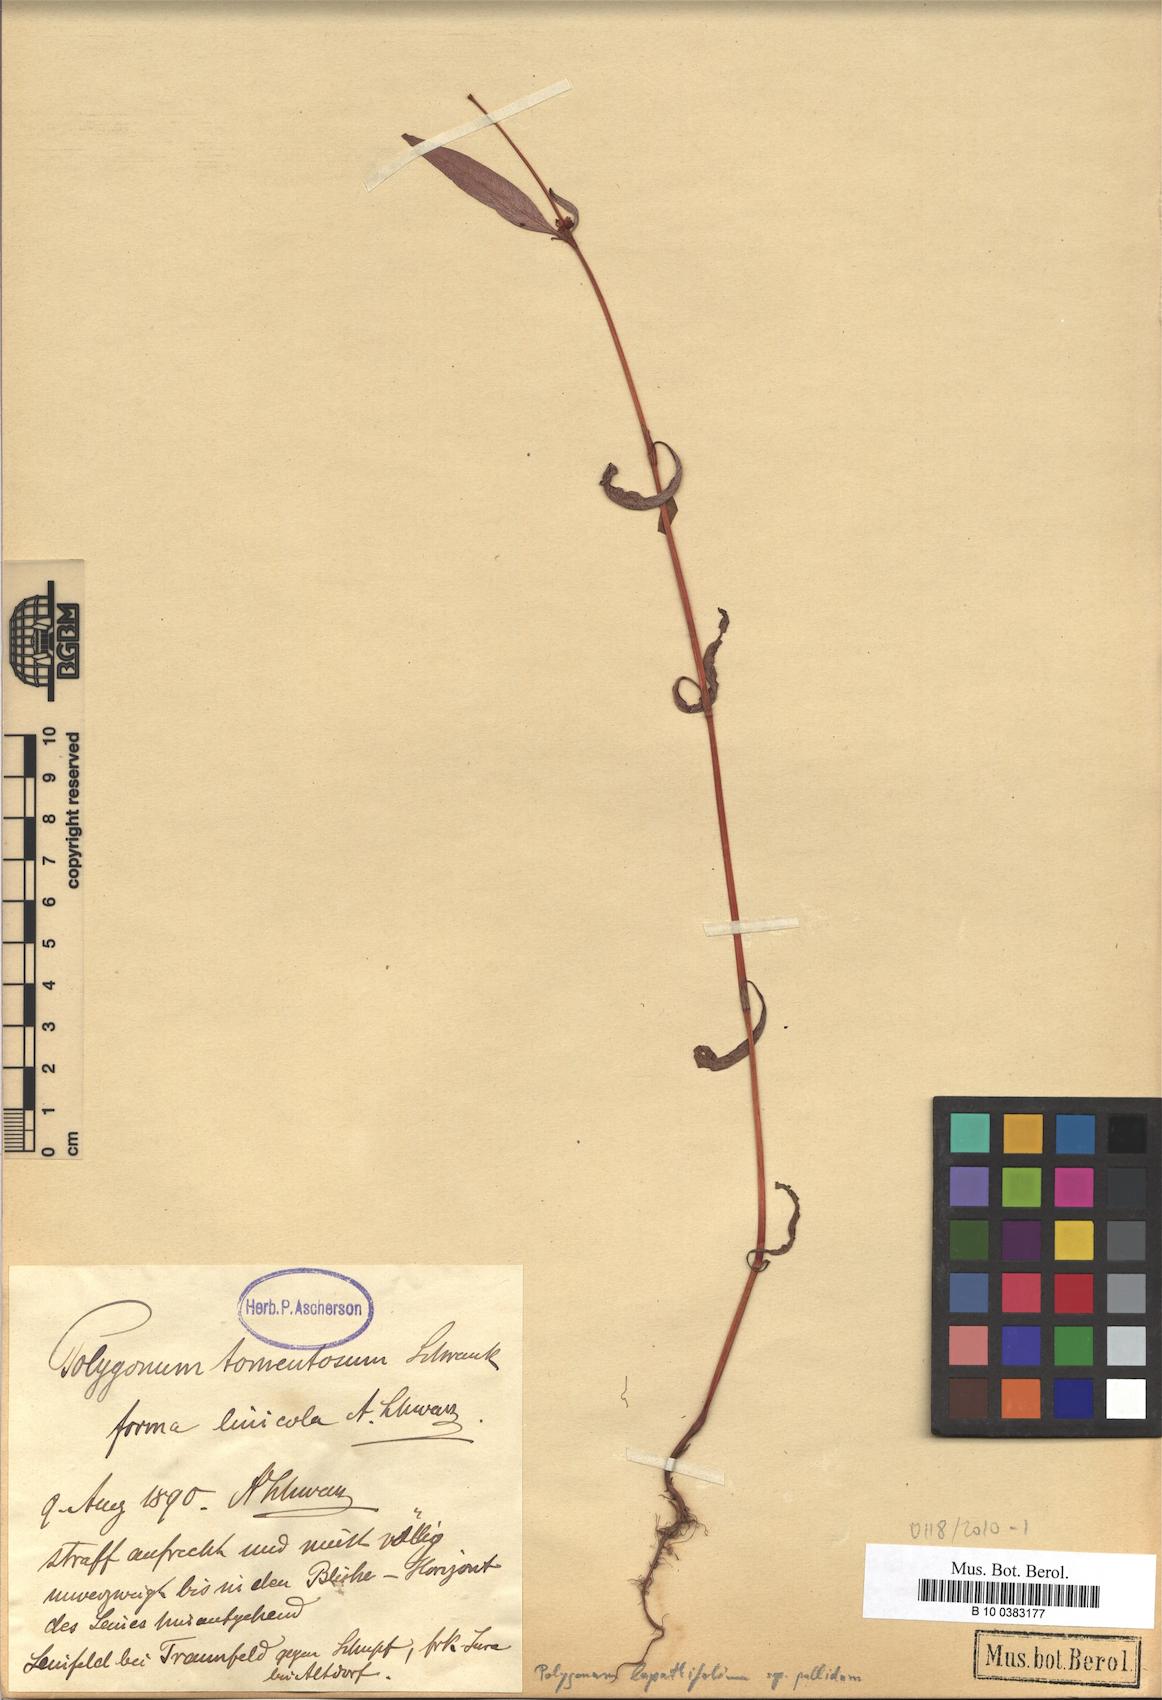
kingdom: Plantae
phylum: Tracheophyta
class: Magnoliopsida
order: Caryophyllales
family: Polygonaceae
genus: Persicaria
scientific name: Persicaria lapathifolia
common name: Curlytop knotweed
